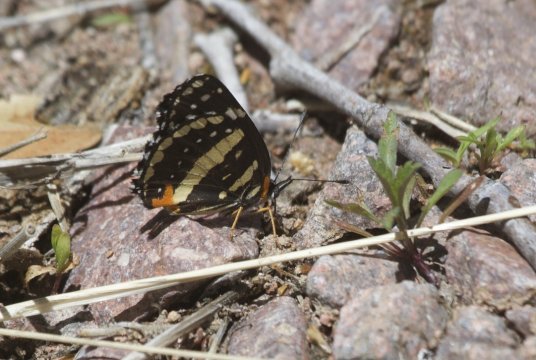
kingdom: Animalia
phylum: Arthropoda
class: Insecta
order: Lepidoptera
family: Nymphalidae
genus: Chlosyne
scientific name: Chlosyne lacinia
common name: Bordered Patch
